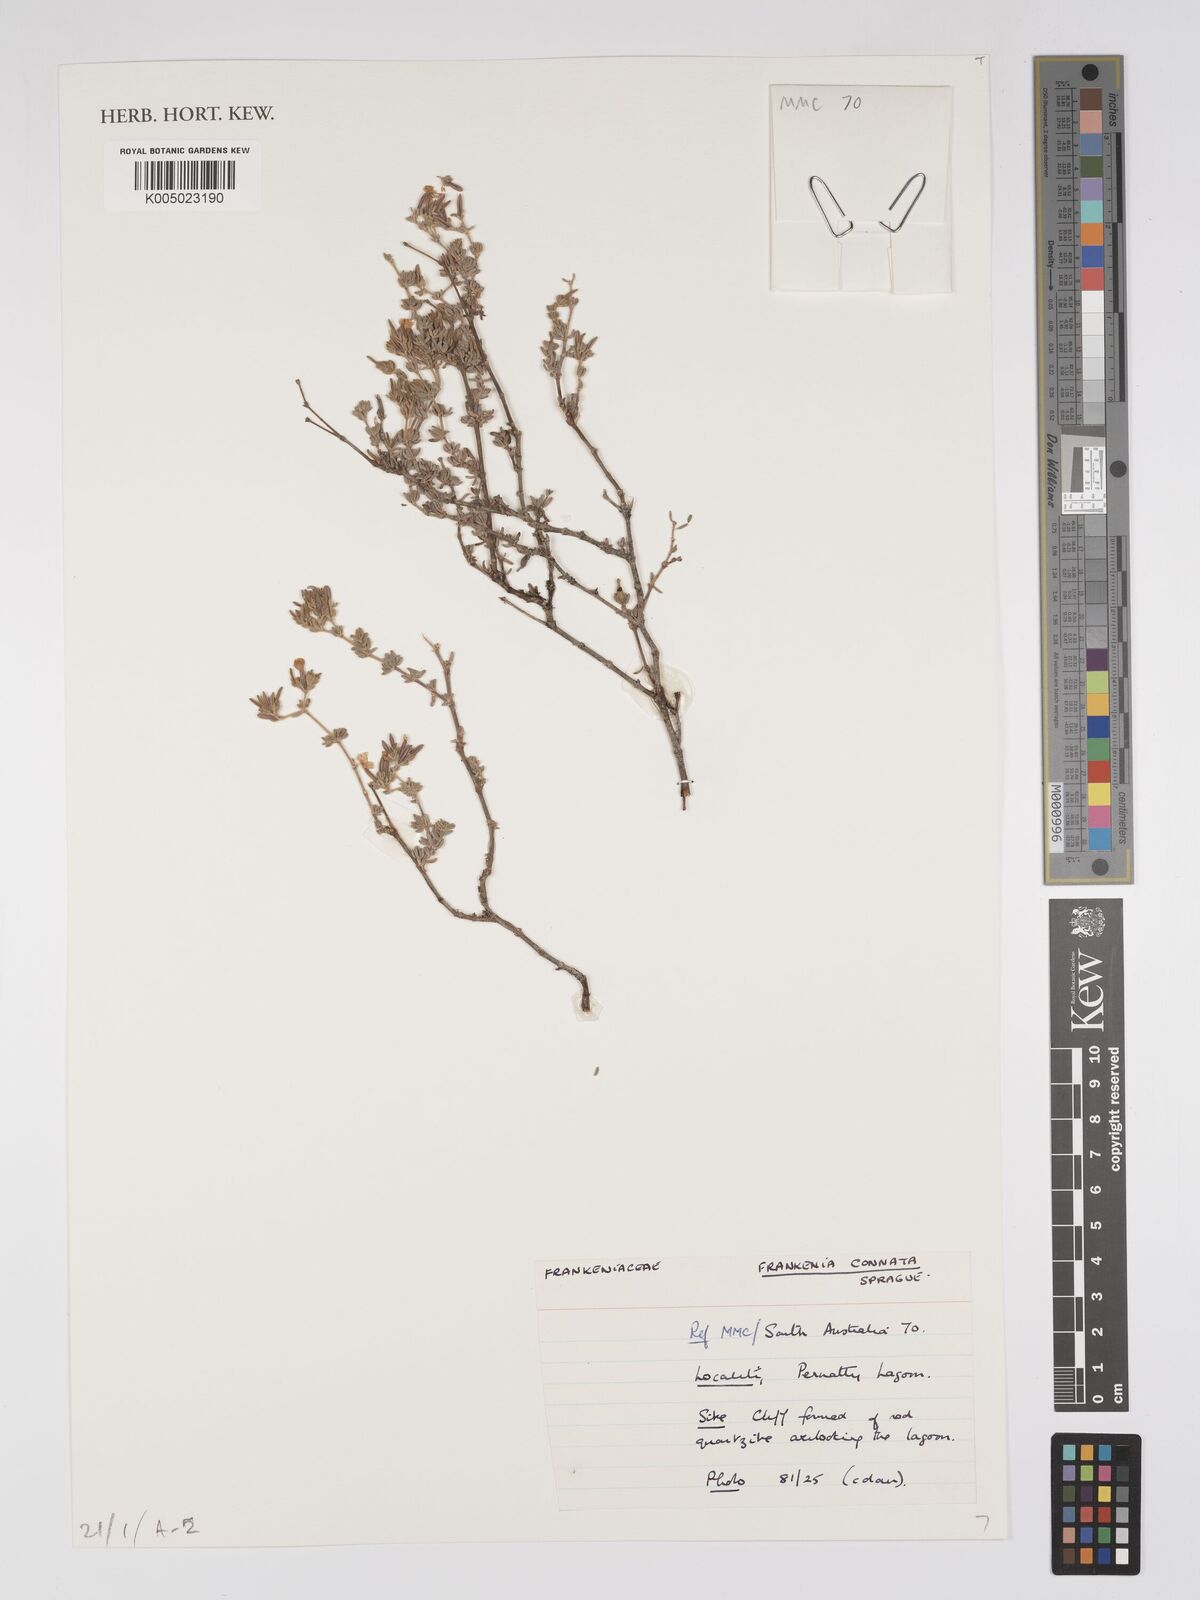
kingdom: Plantae
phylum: Tracheophyta
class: Magnoliopsida
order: Caryophyllales
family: Frankeniaceae
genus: Frankenia
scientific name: Frankenia connata
